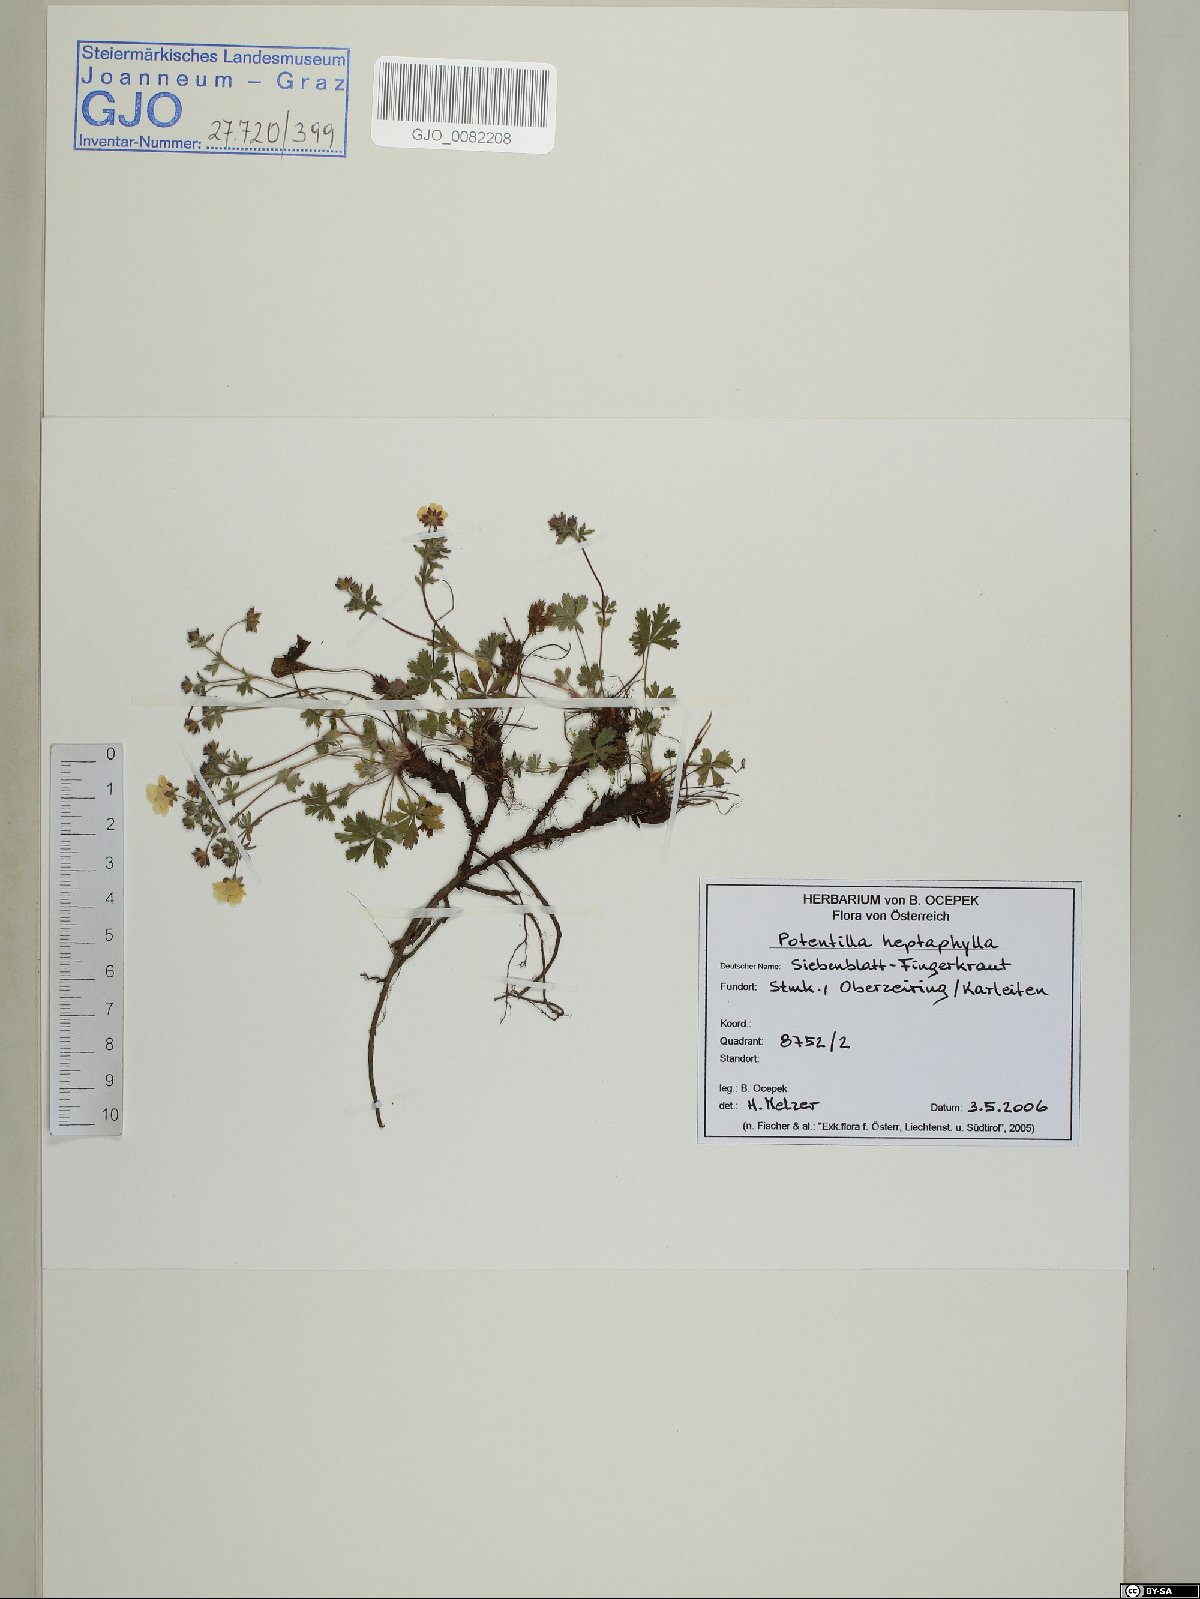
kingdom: Plantae
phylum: Tracheophyta
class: Magnoliopsida
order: Rosales
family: Rosaceae
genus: Potentilla
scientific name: Potentilla heptaphylla
